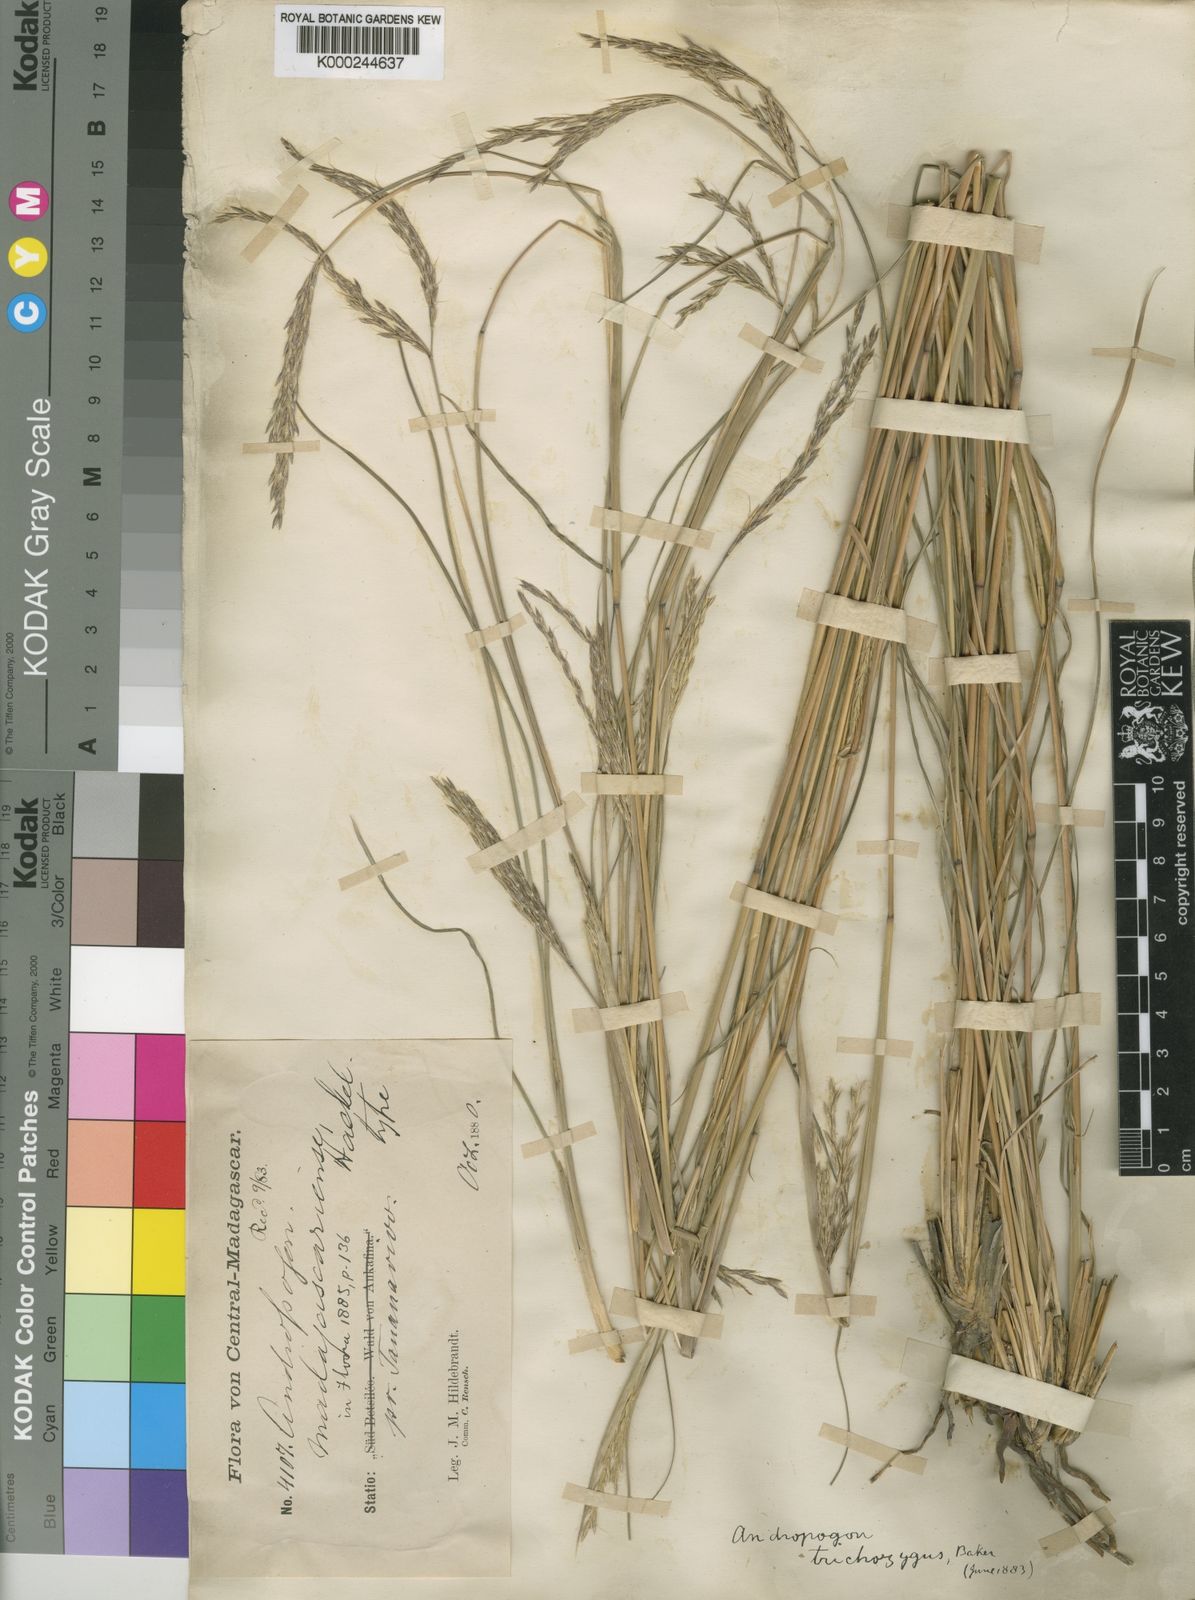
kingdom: Plantae
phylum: Tracheophyta
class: Liliopsida
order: Poales
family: Poaceae
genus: Andropogon
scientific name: Andropogon trichozygus
